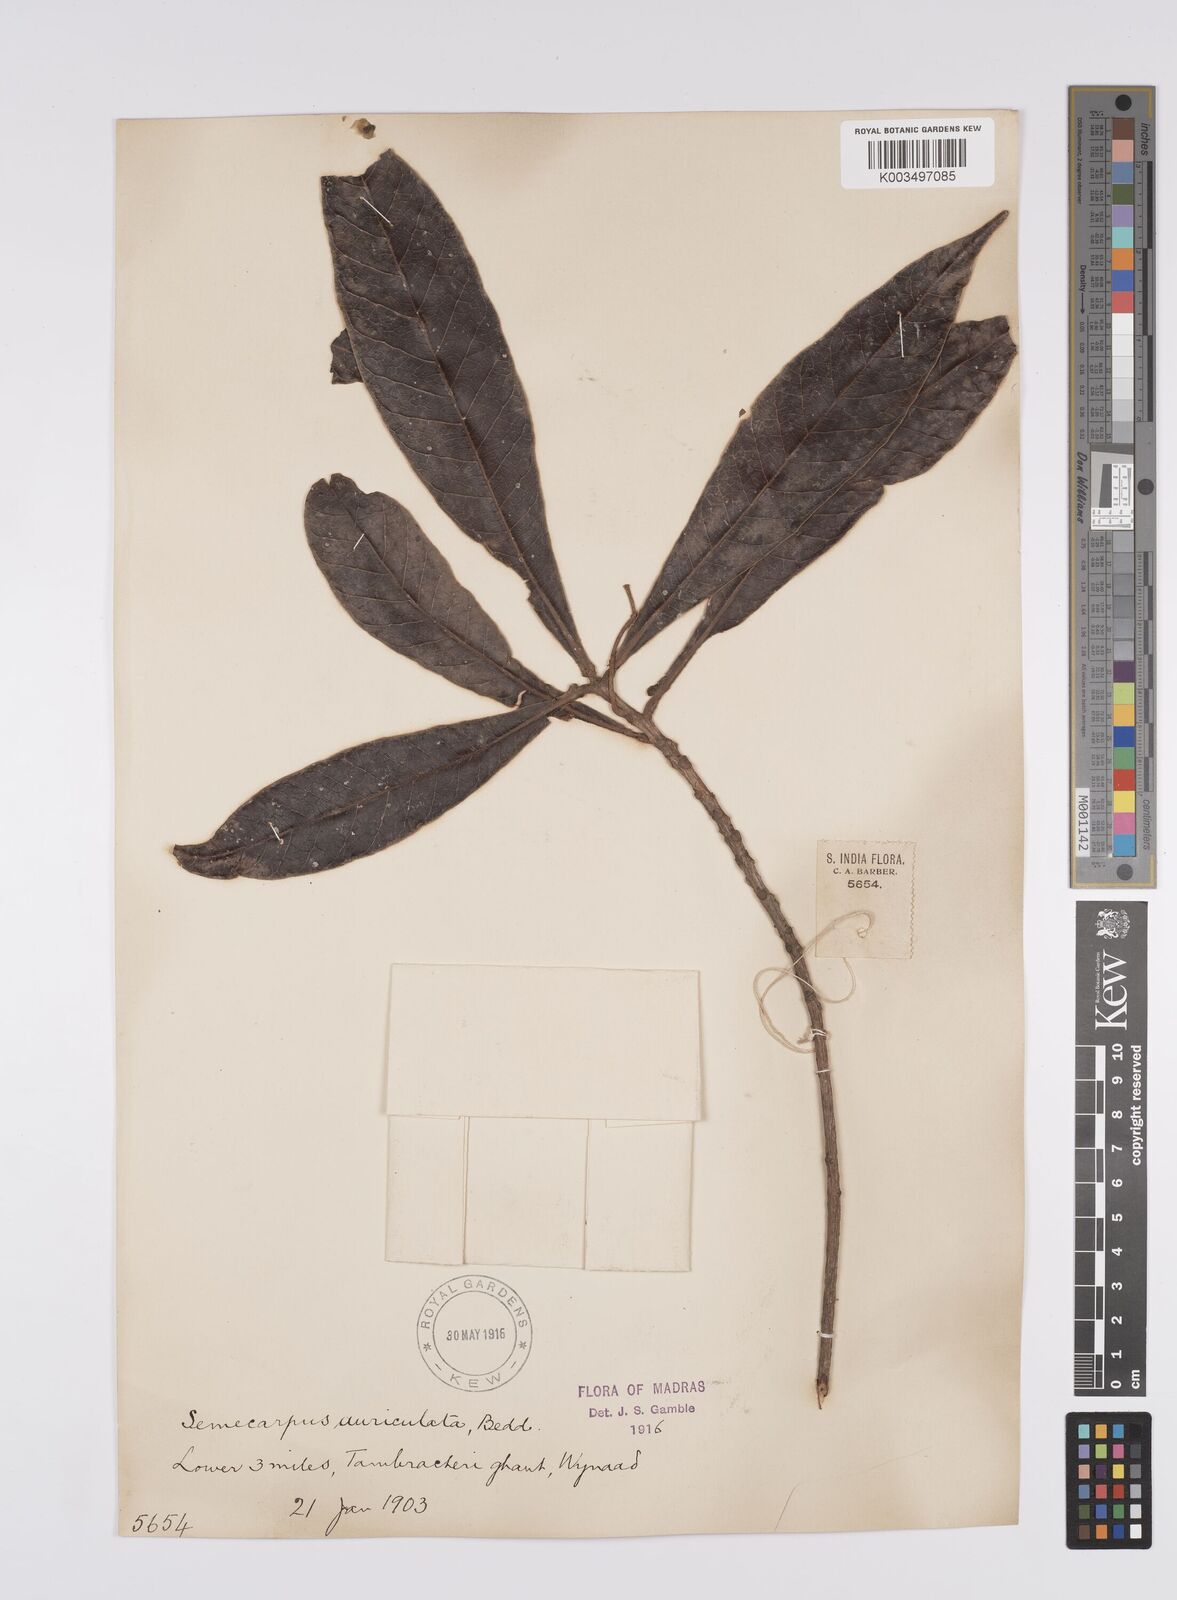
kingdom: Plantae
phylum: Tracheophyta
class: Magnoliopsida
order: Sapindales
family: Anacardiaceae
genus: Semecarpus
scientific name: Semecarpus auriculatus
